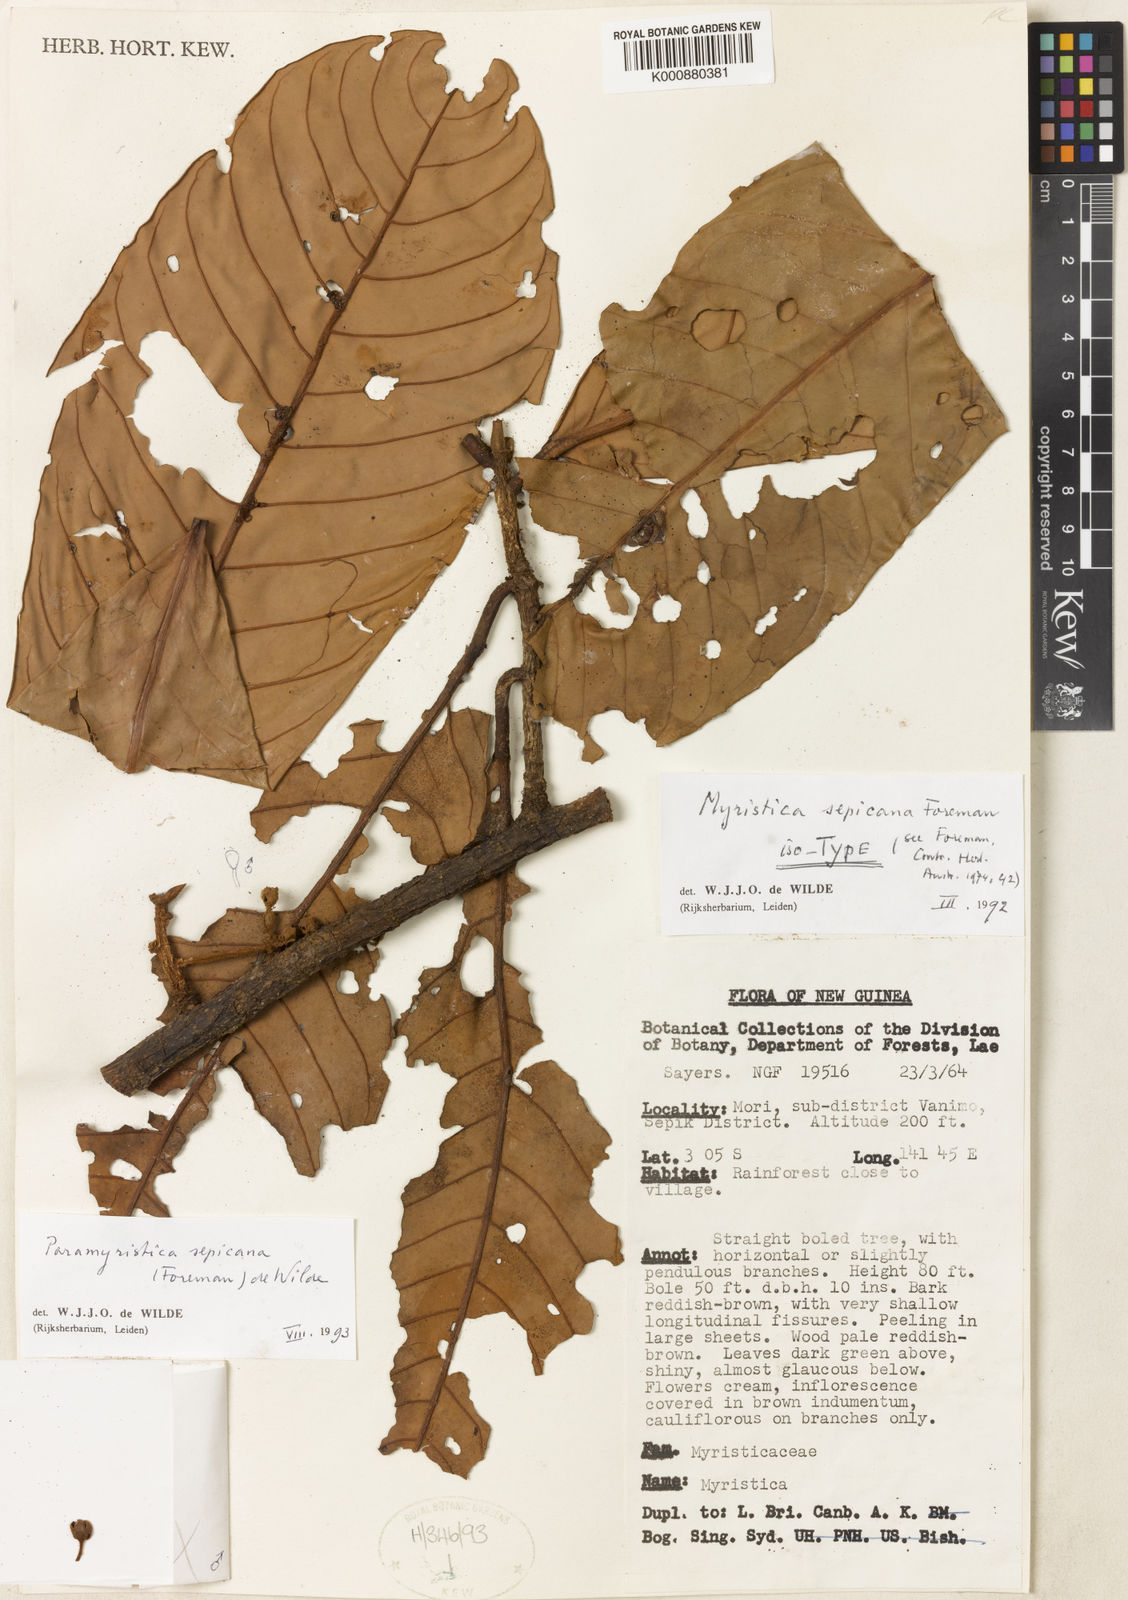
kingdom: Plantae
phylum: Tracheophyta
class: Magnoliopsida
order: Magnoliales
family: Myristicaceae
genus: Paramyristica
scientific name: Paramyristica sepicana
